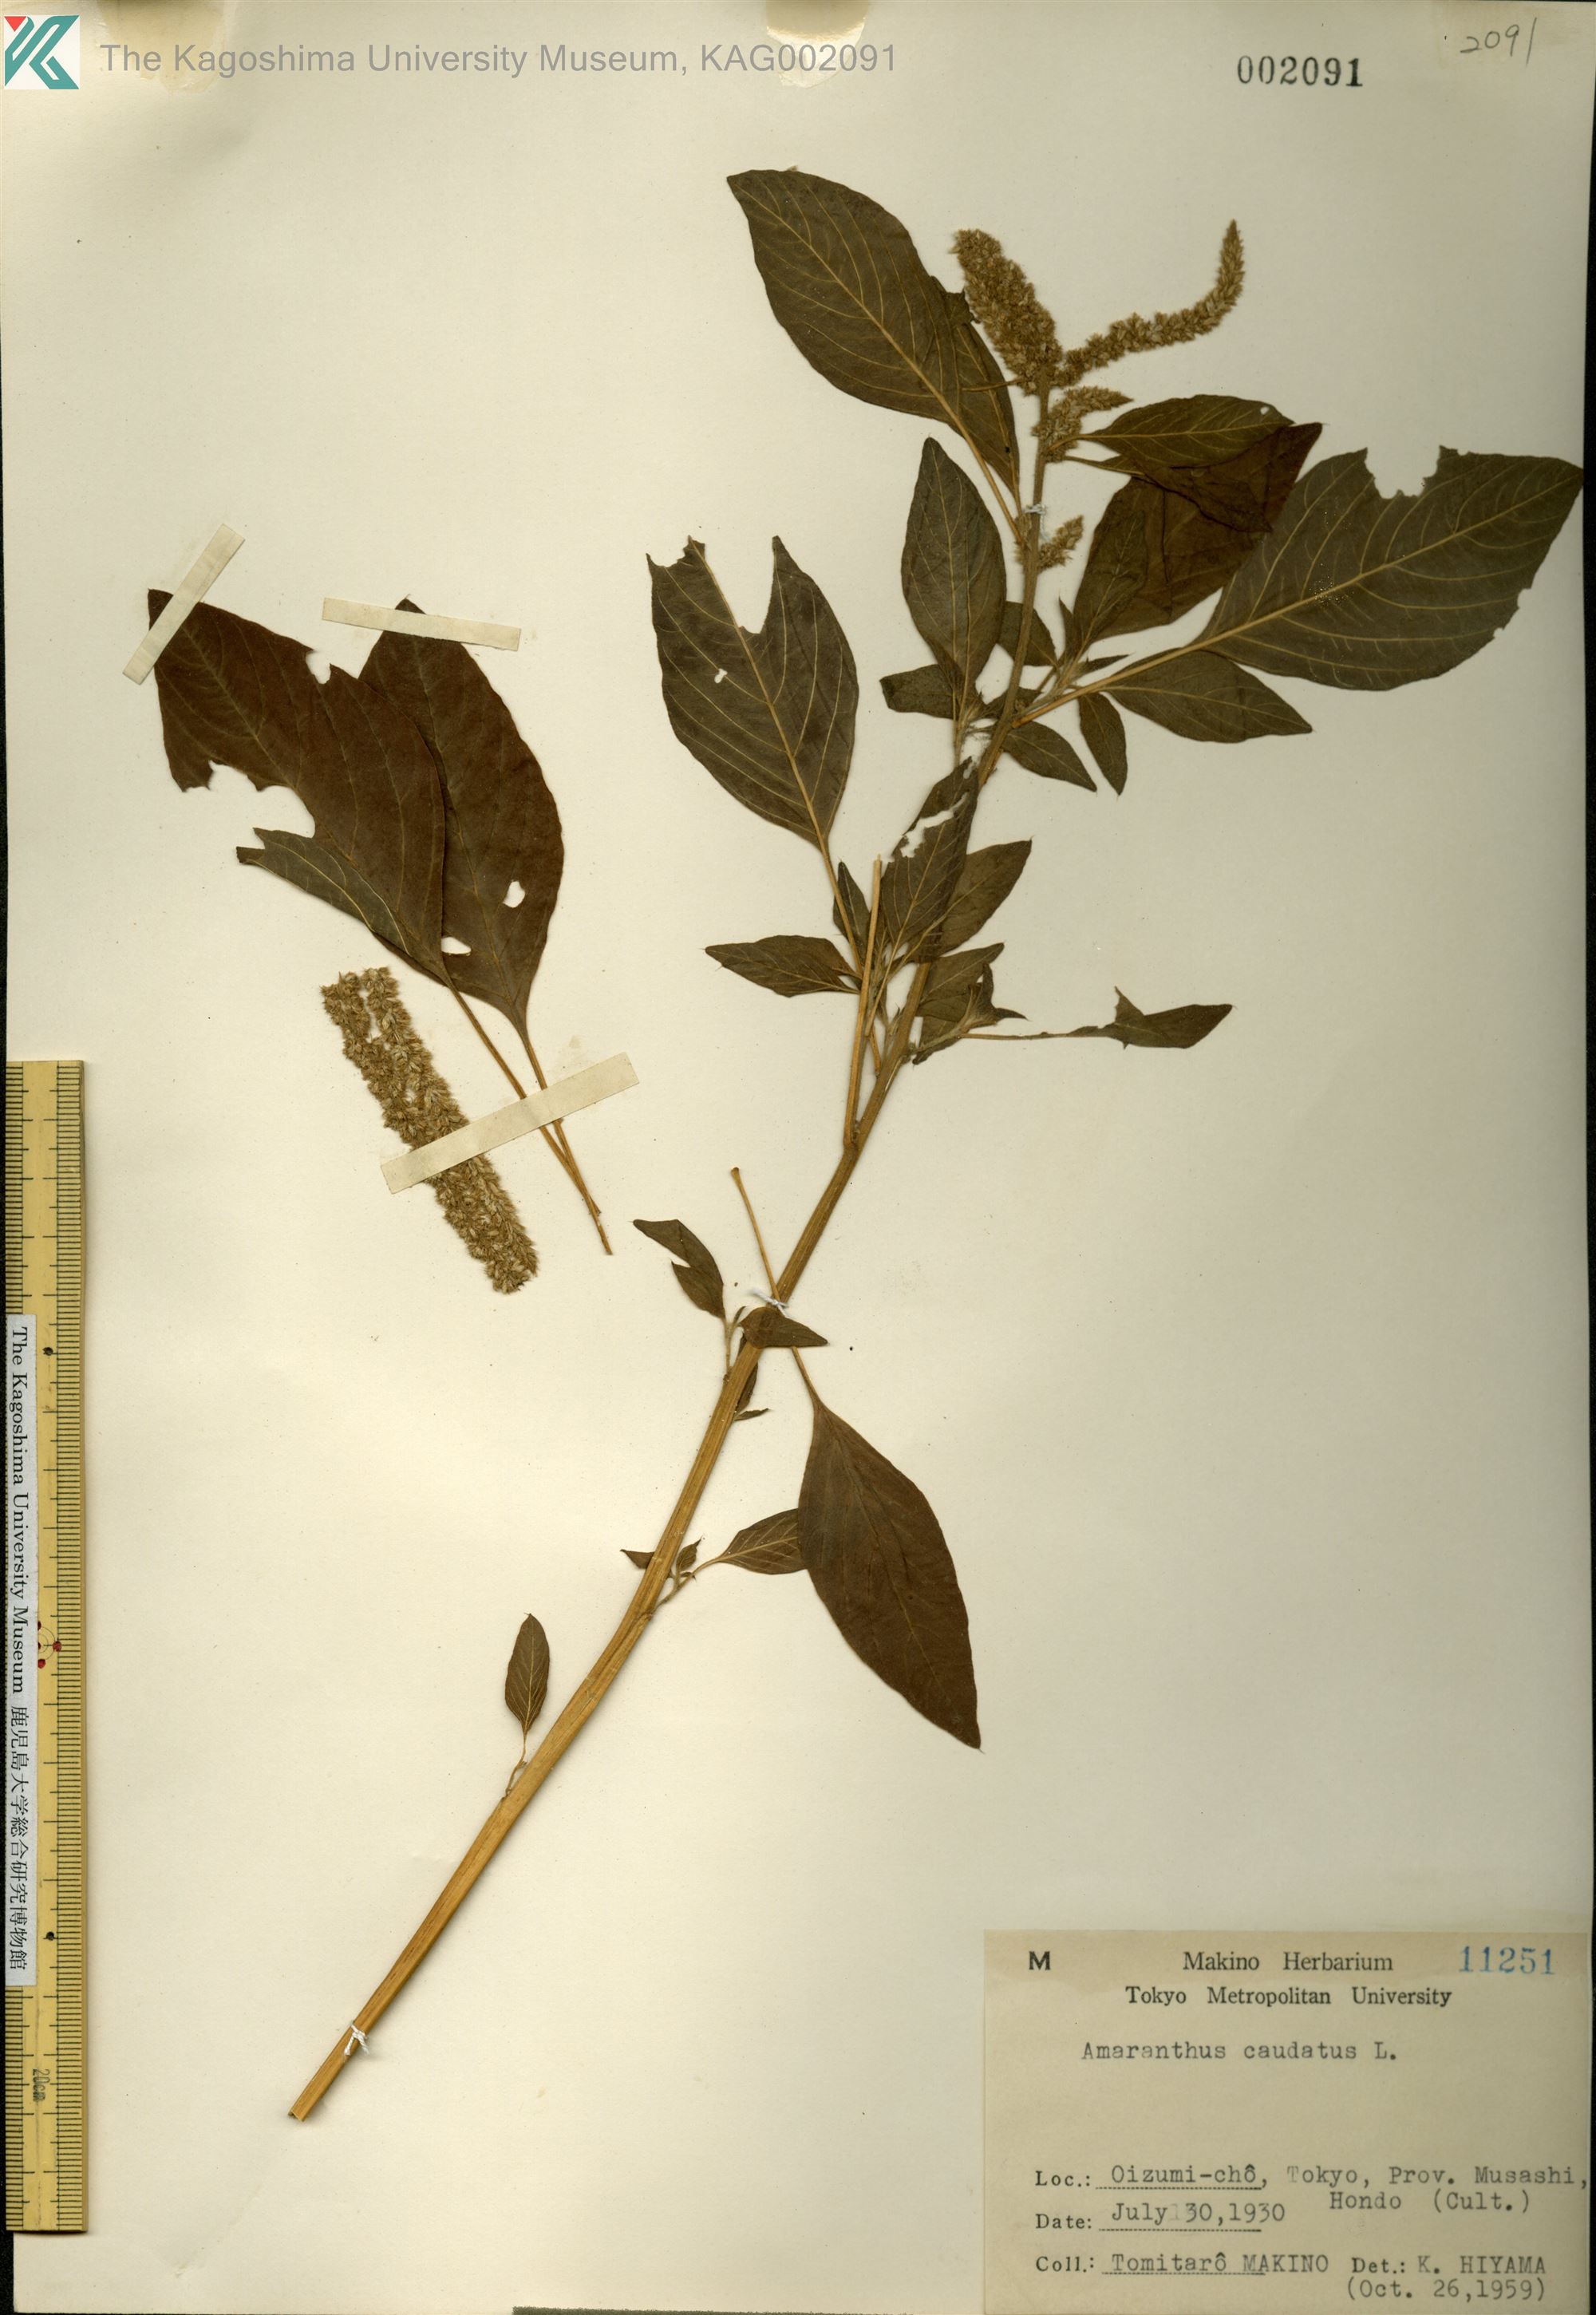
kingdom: Plantae
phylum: Tracheophyta
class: Magnoliopsida
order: Caryophyllales
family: Amaranthaceae
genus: Amaranthus
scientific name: Amaranthus caudatus
